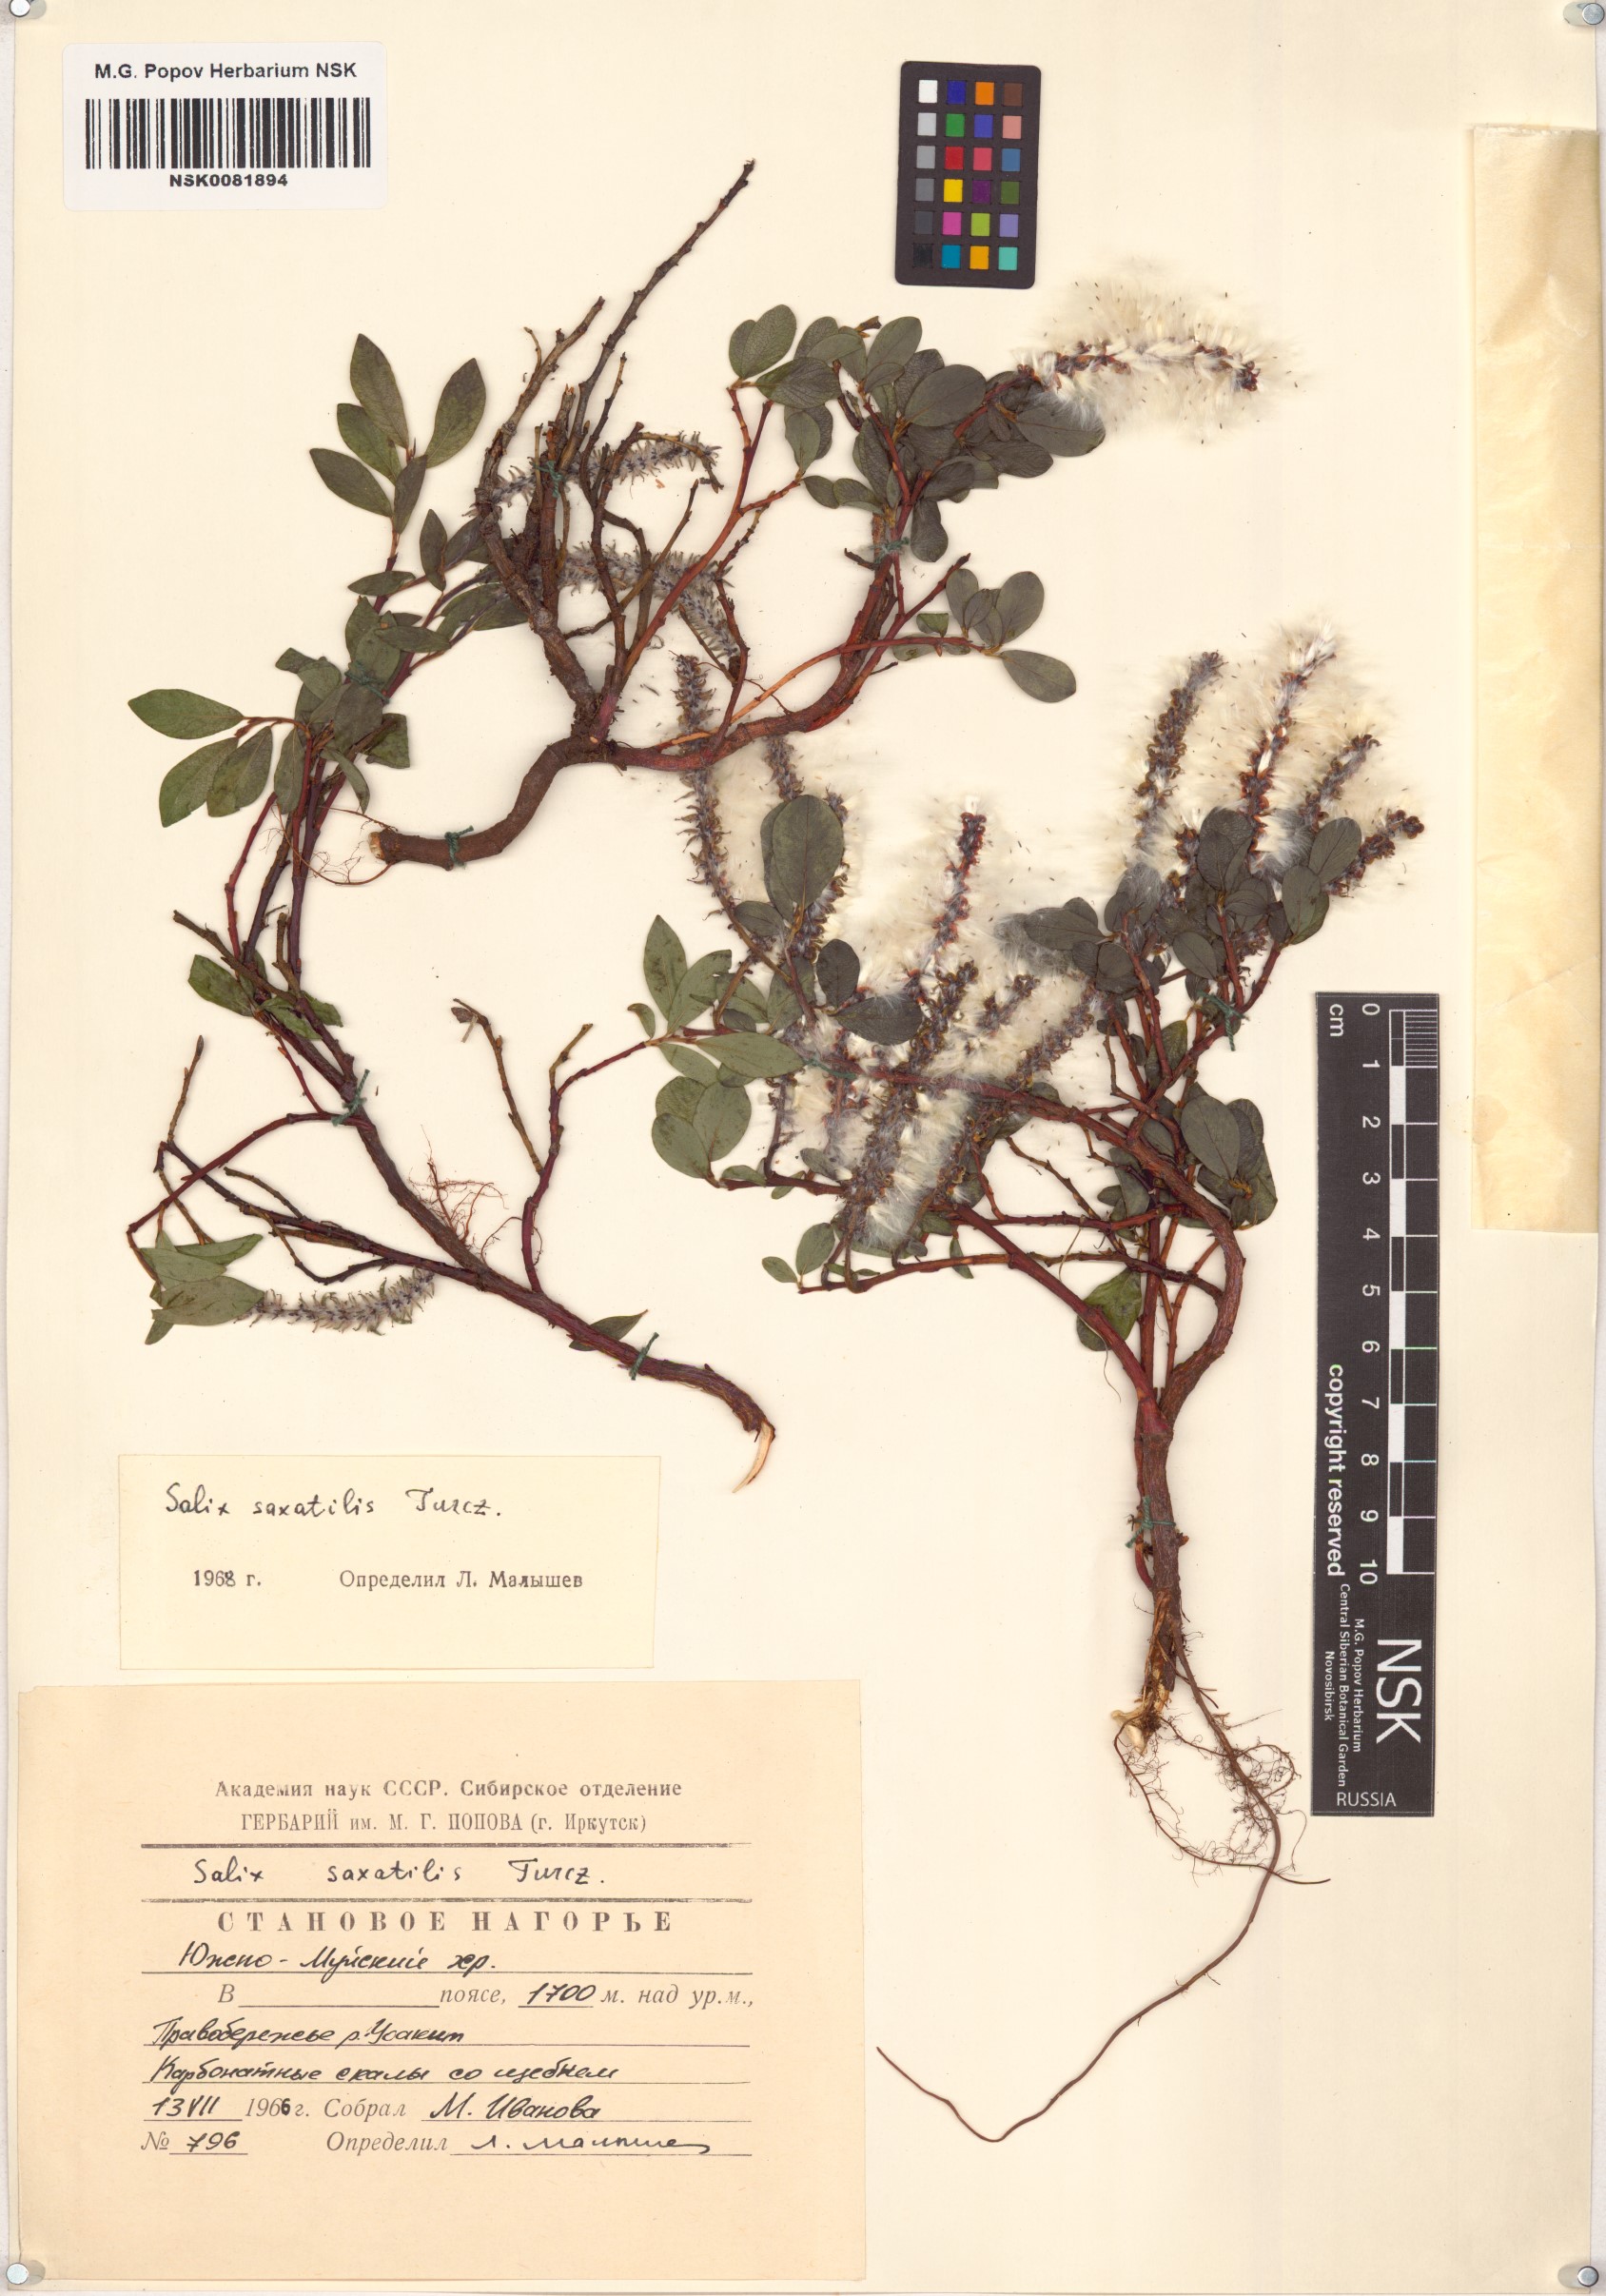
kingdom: Plantae
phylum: Tracheophyta
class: Magnoliopsida
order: Malpighiales
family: Salicaceae
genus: Salix
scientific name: Salix saxatilis
